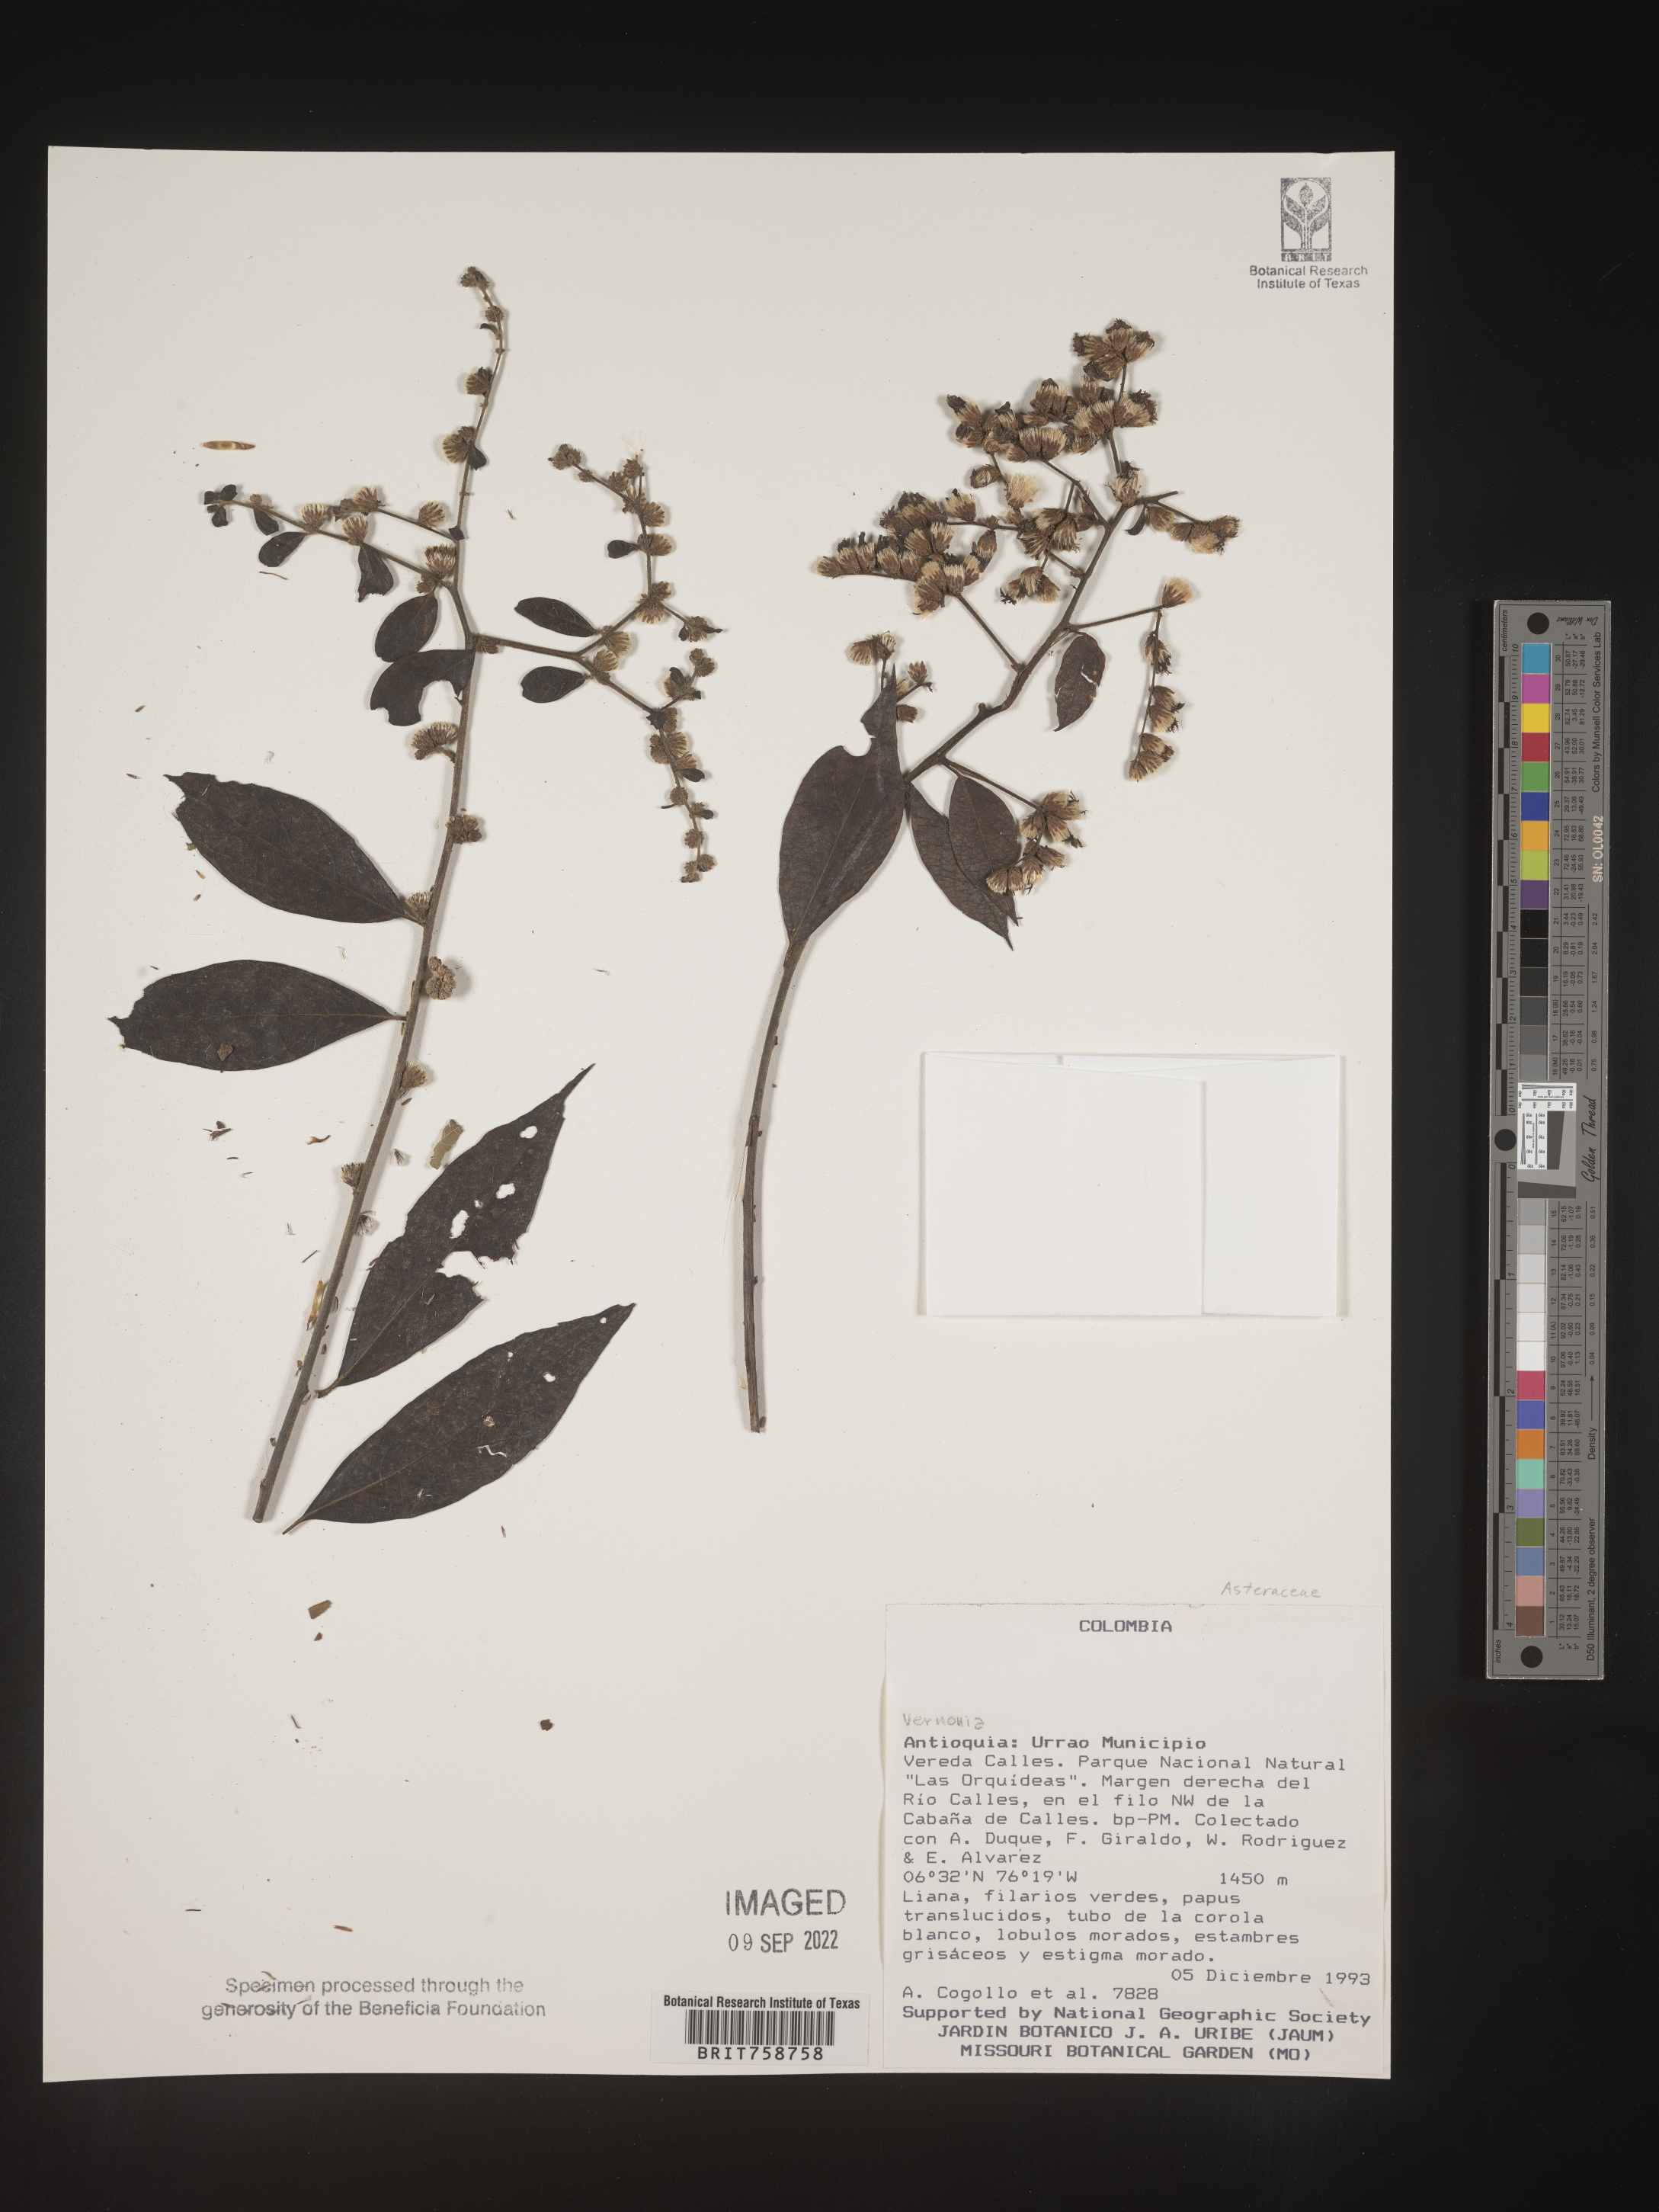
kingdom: Plantae
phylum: Tracheophyta
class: Magnoliopsida
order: Asterales
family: Asteraceae
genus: Vernonia
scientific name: Vernonia
